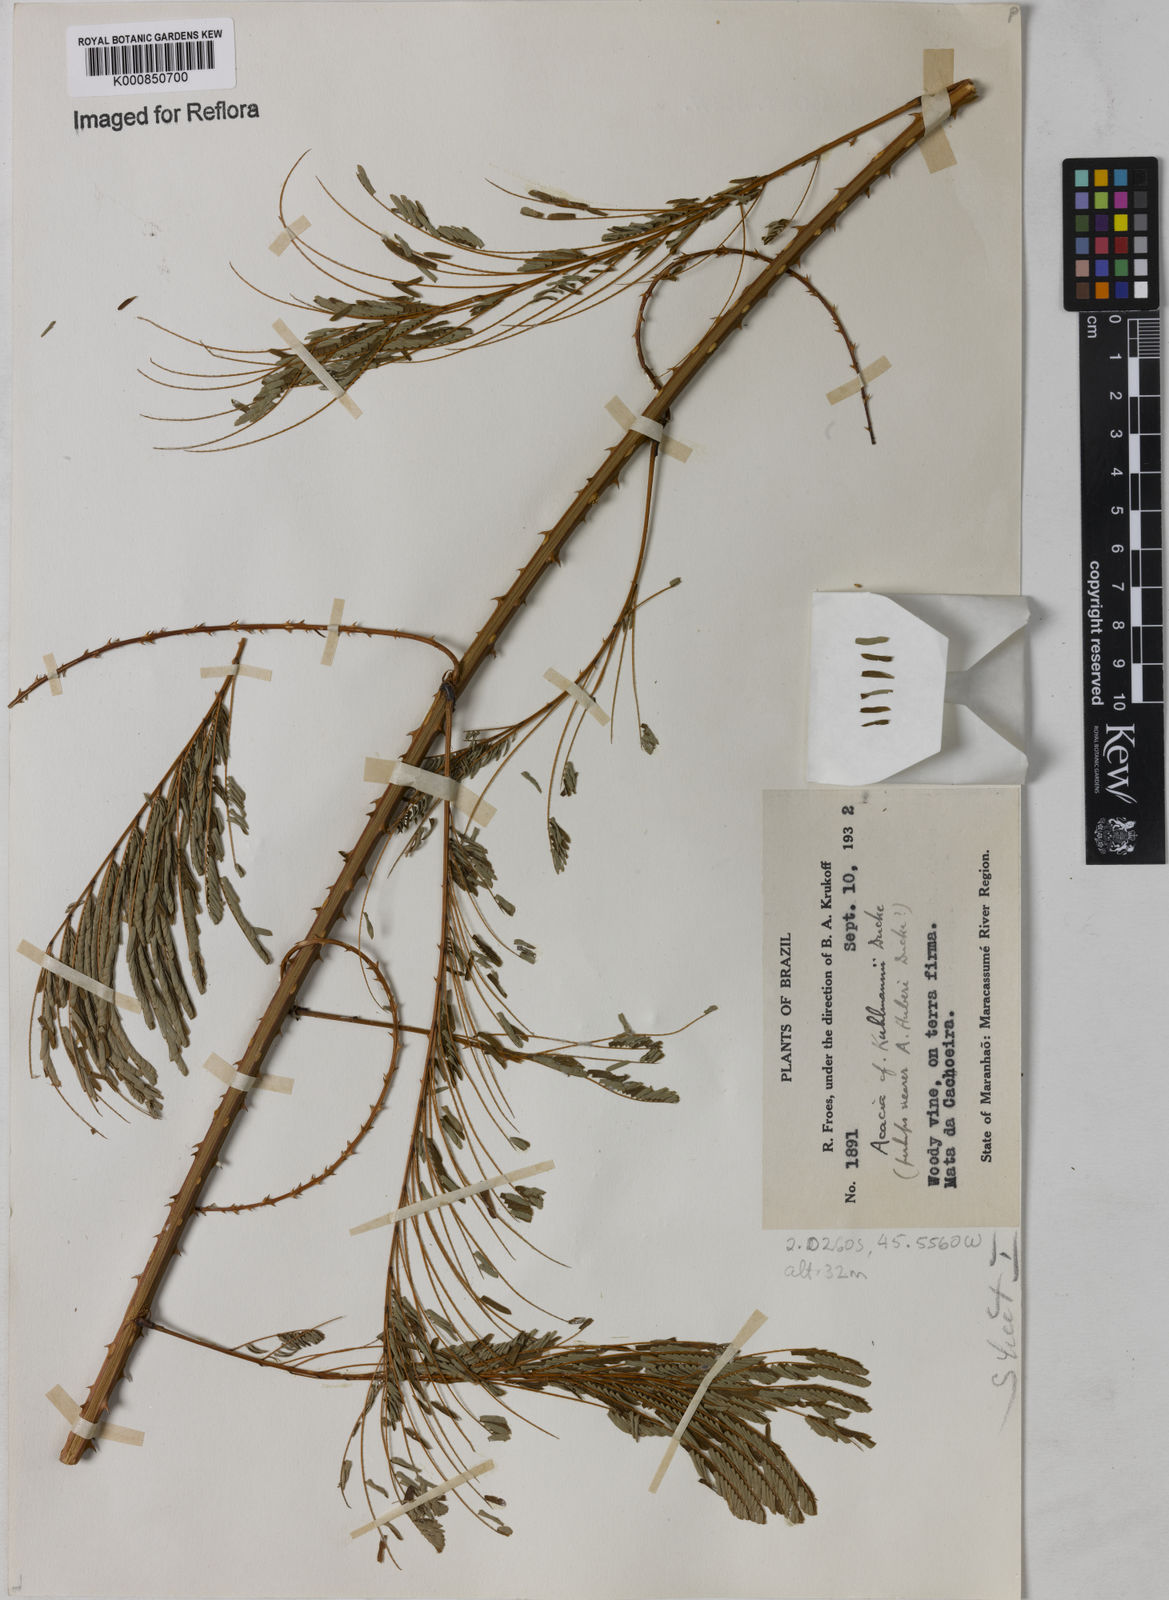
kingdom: Plantae
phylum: Tracheophyta
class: Magnoliopsida
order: Fabales
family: Fabaceae
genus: Senegalia
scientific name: Senegalia kuhlmannii
